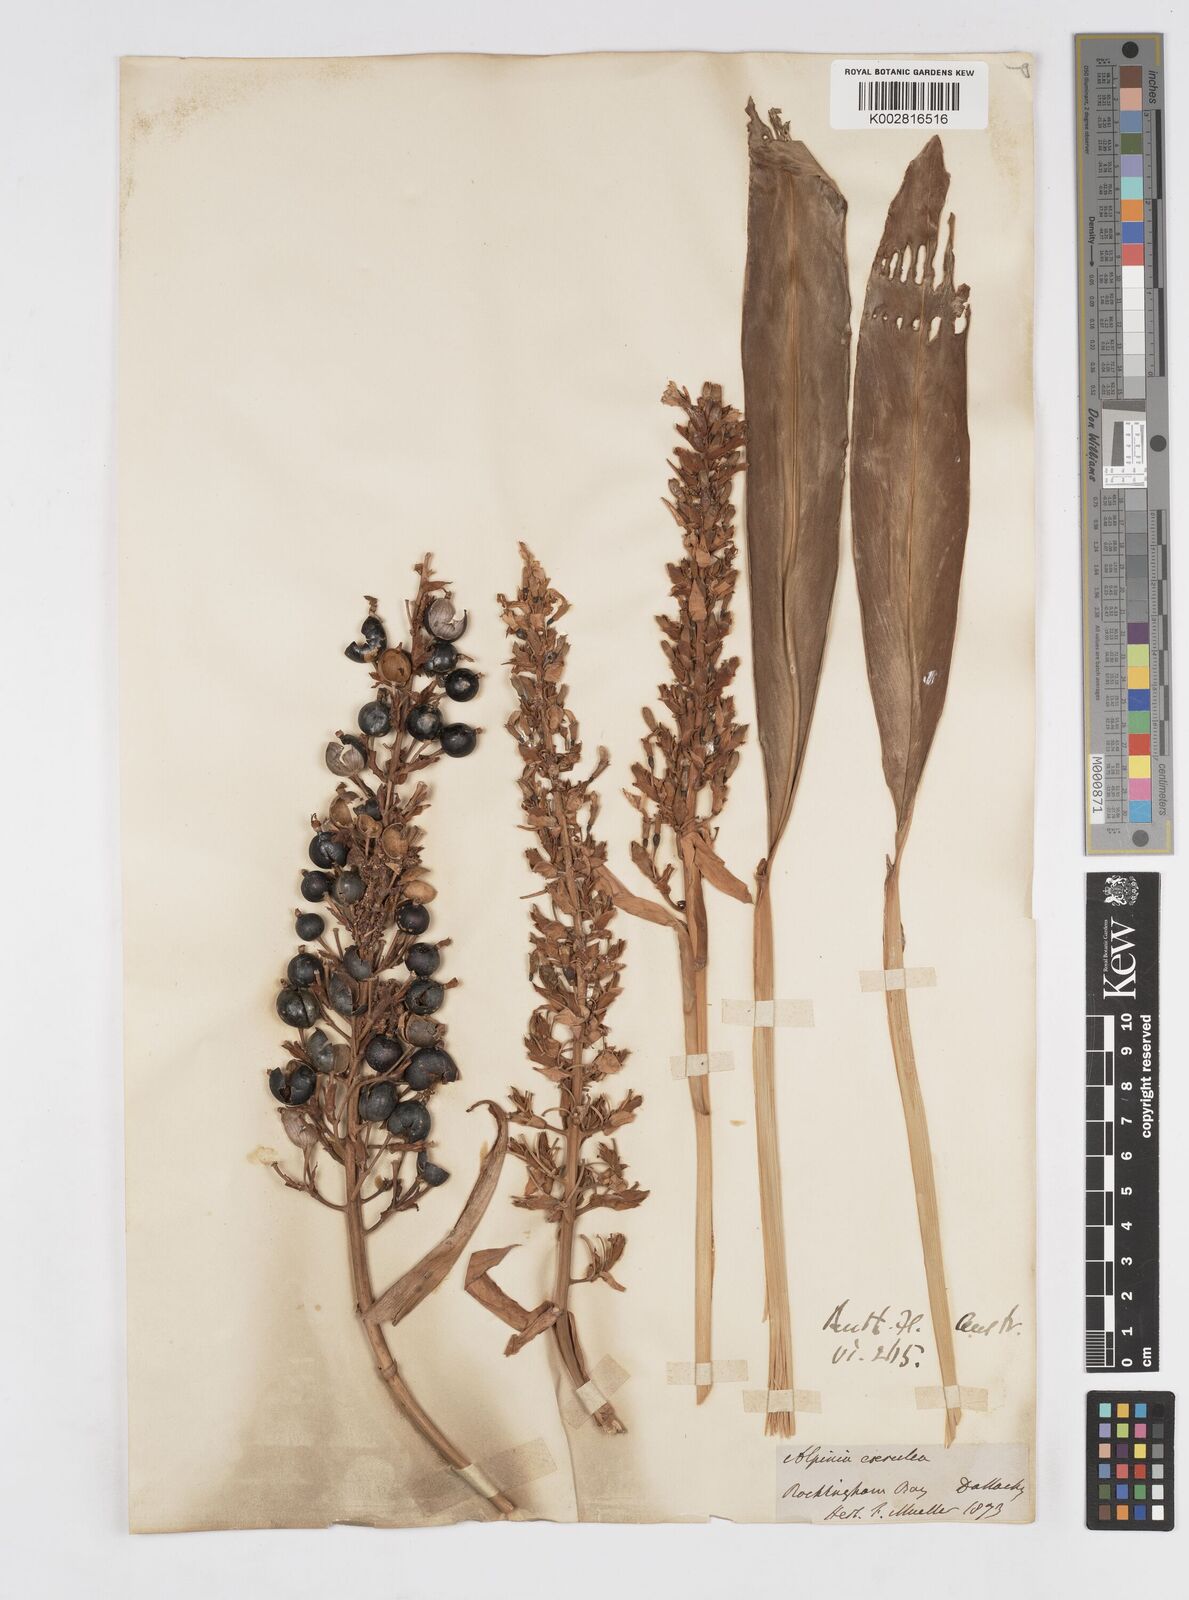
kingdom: Plantae
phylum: Tracheophyta
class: Liliopsida
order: Zingiberales
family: Zingiberaceae
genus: Alpinia
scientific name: Alpinia
